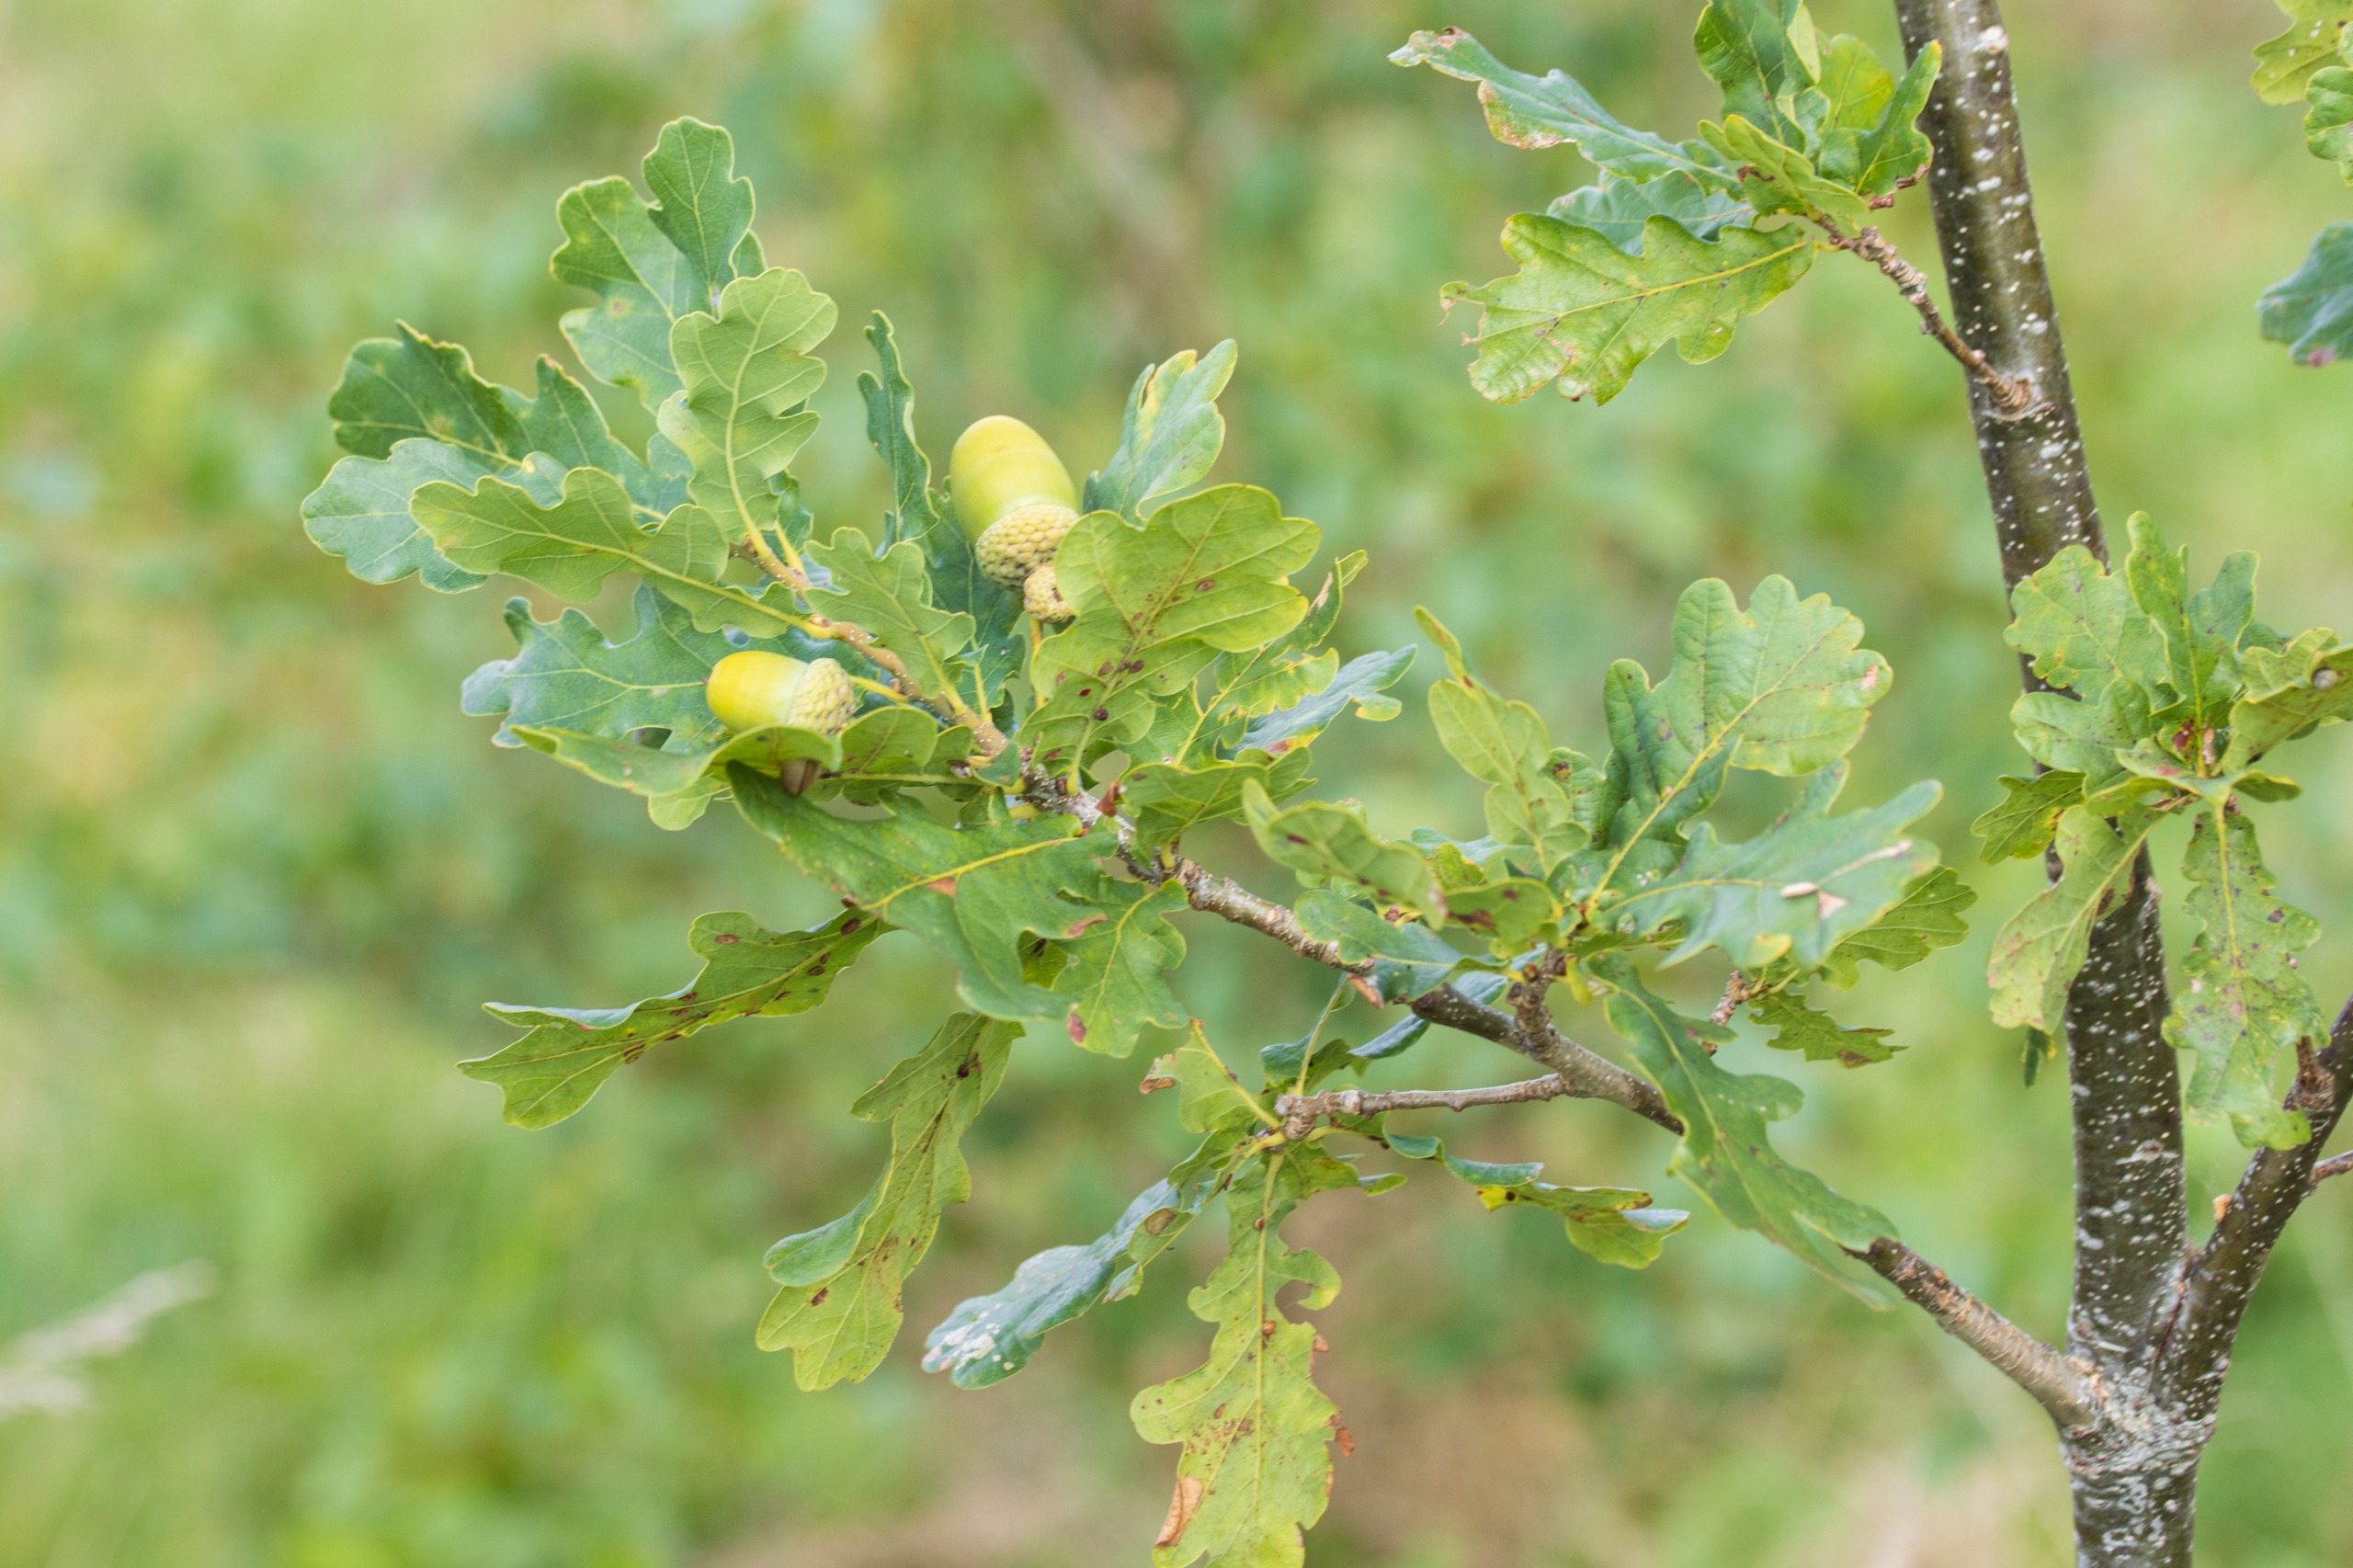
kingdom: Plantae
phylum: Tracheophyta
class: Magnoliopsida
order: Fagales
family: Fagaceae
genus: Quercus
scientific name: Quercus robur
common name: Stilk-eg/almindelig eg
